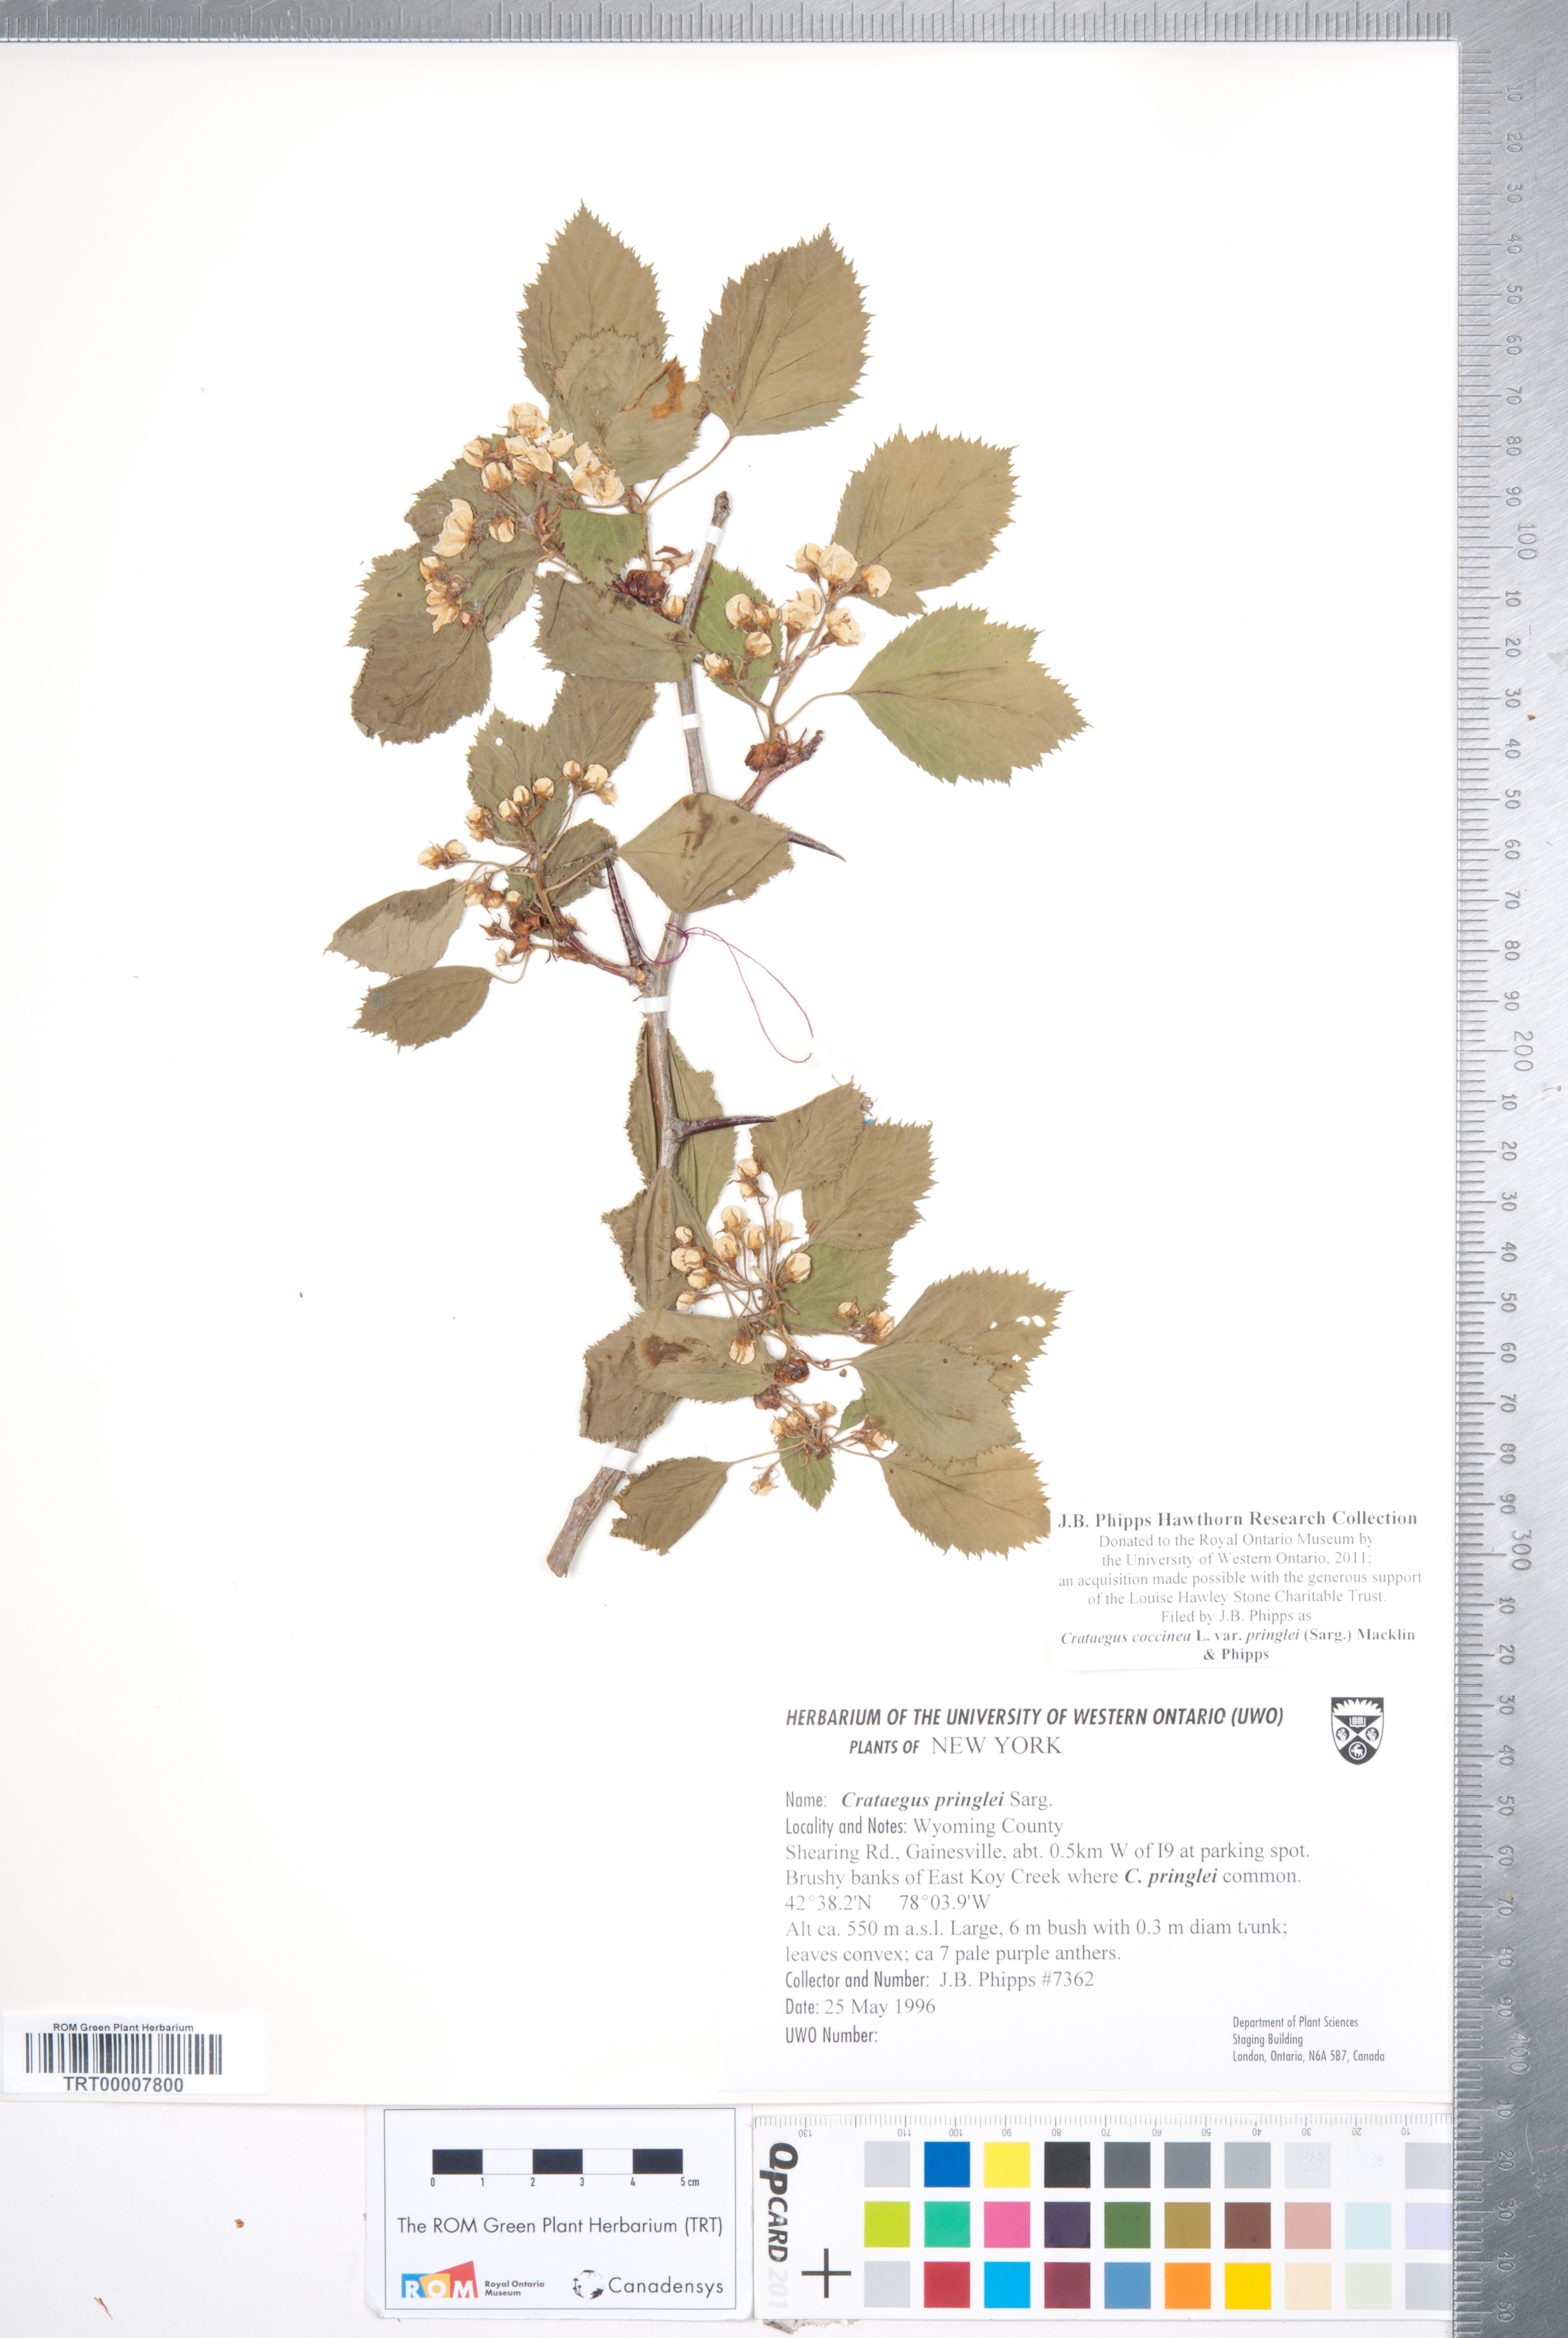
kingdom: Plantae
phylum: Tracheophyta
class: Magnoliopsida
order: Rosales
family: Rosaceae
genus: Crataegus
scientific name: Crataegus coccinea
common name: Scarlet hawthorn
